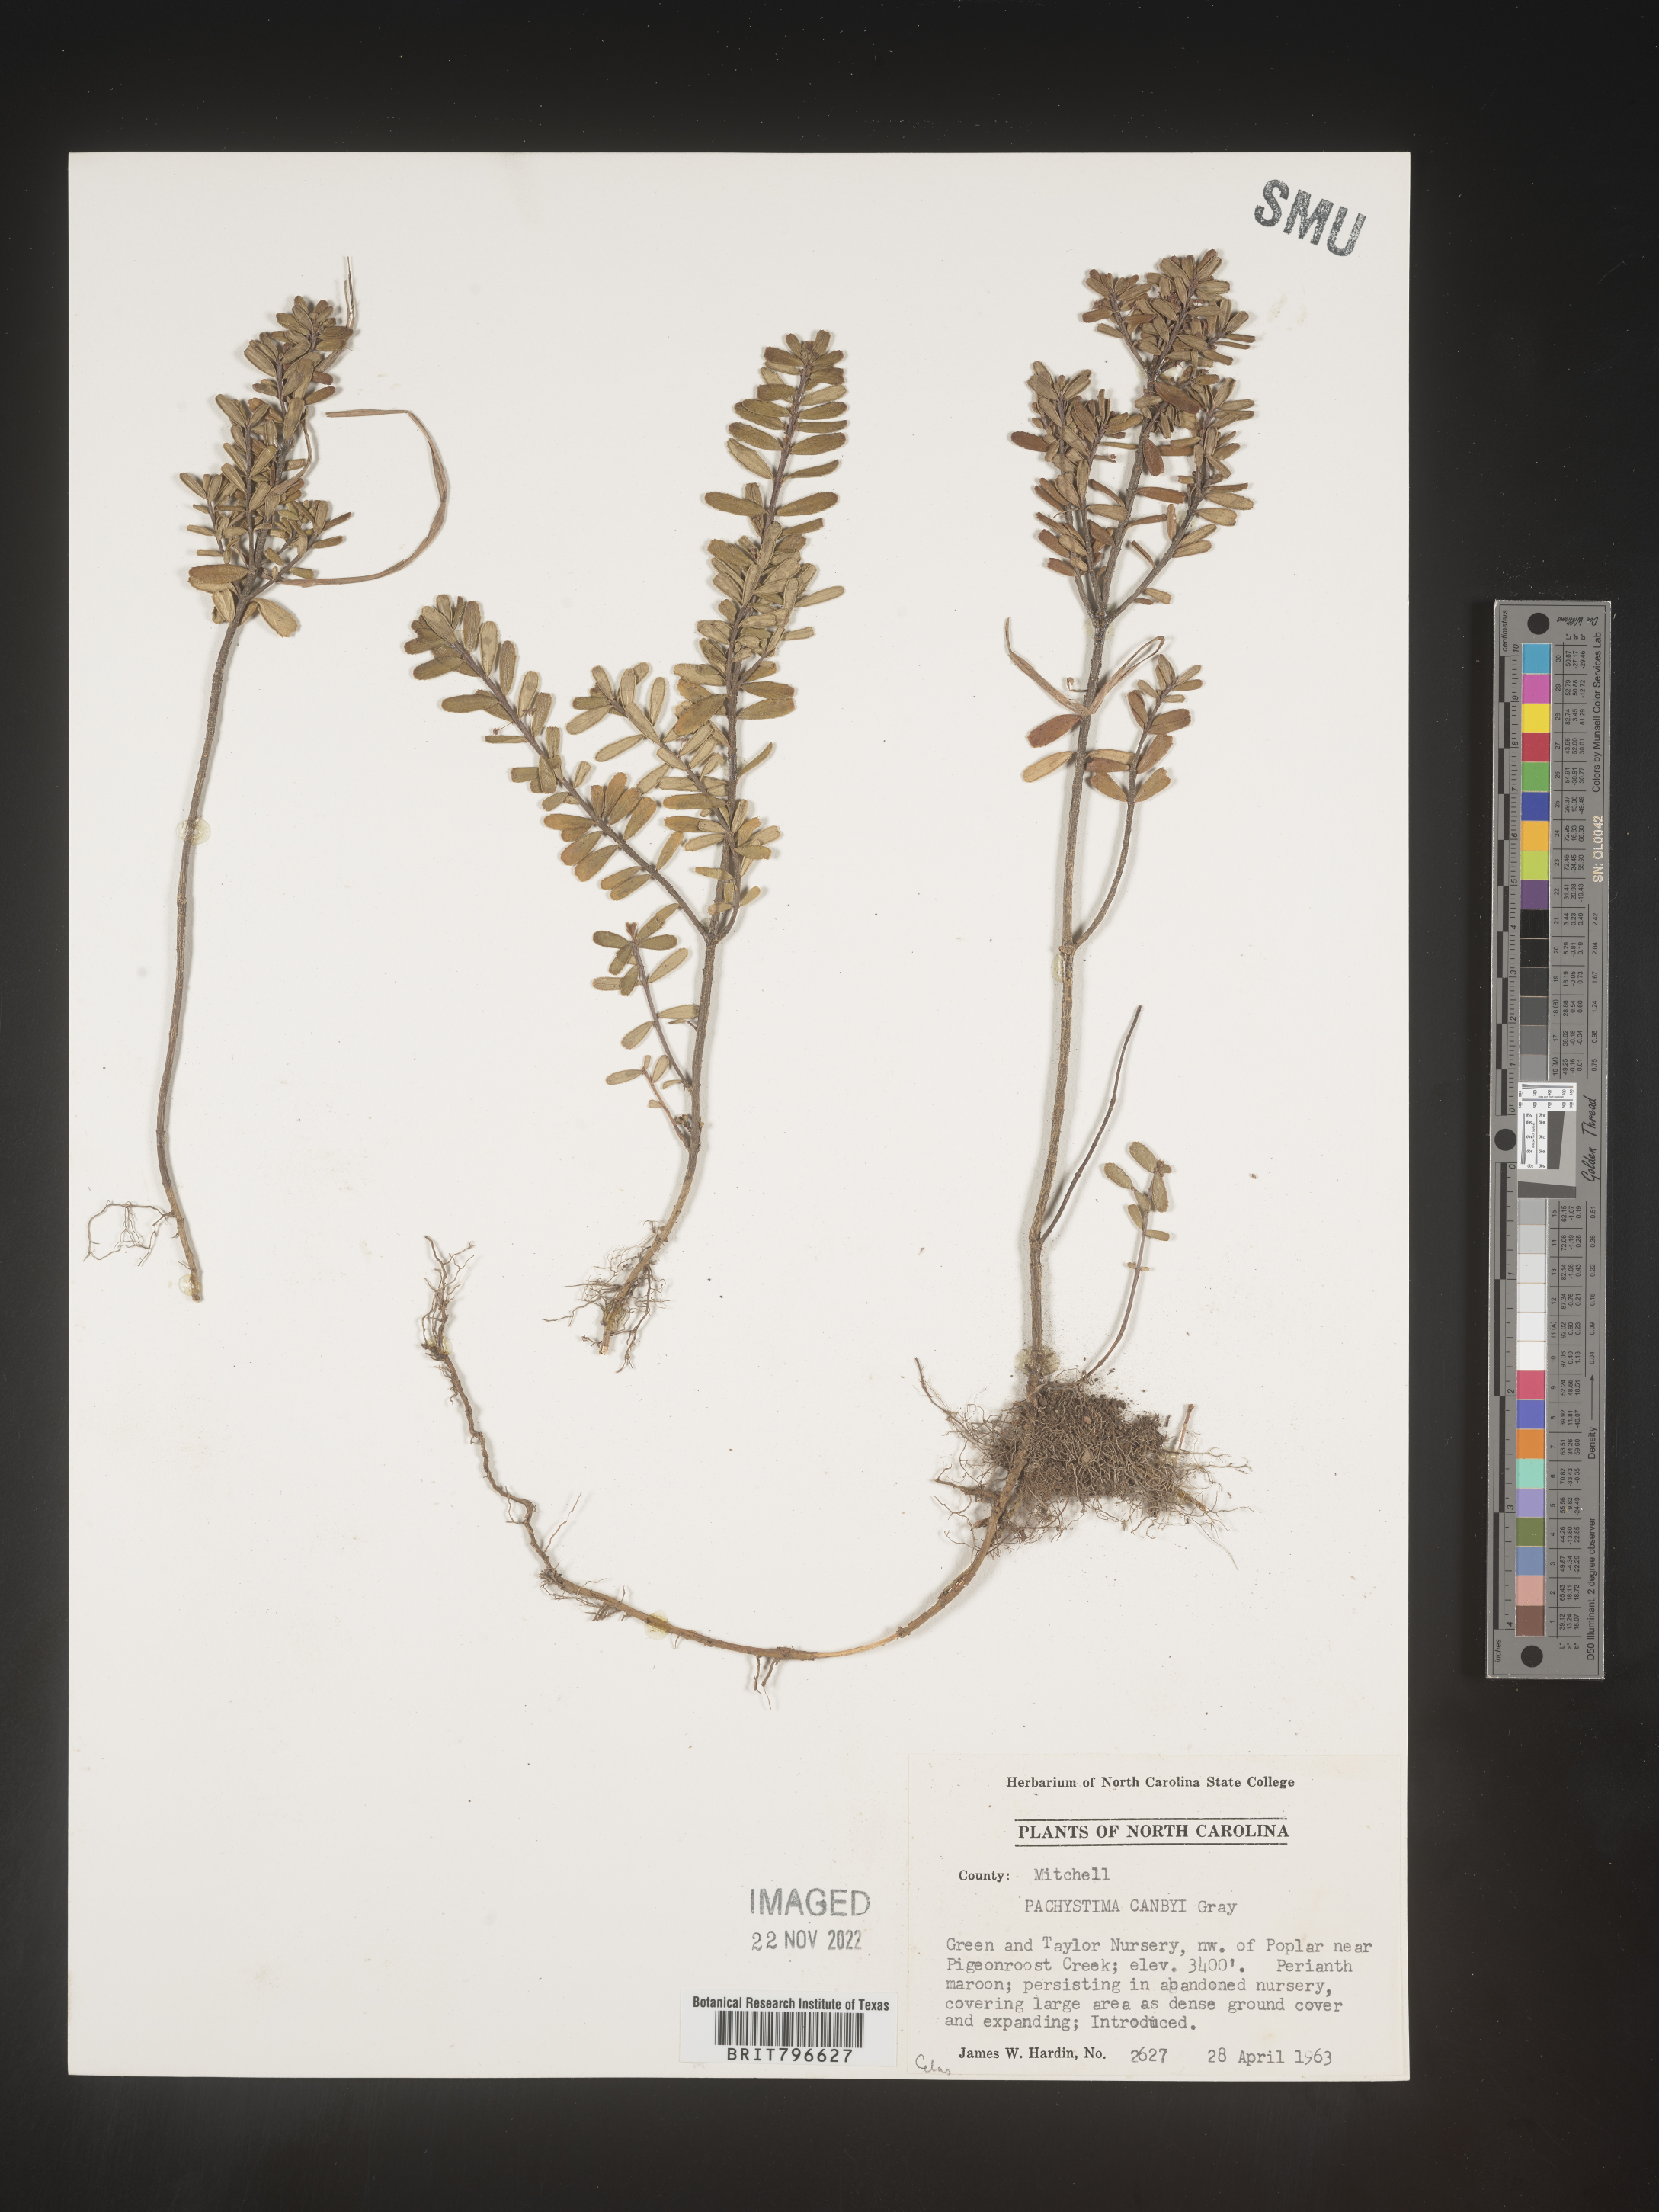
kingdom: Plantae
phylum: Tracheophyta
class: Magnoliopsida
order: Celastrales
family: Celastraceae
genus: Paxistima
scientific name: Paxistima canbyi
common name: Cliffgreen
